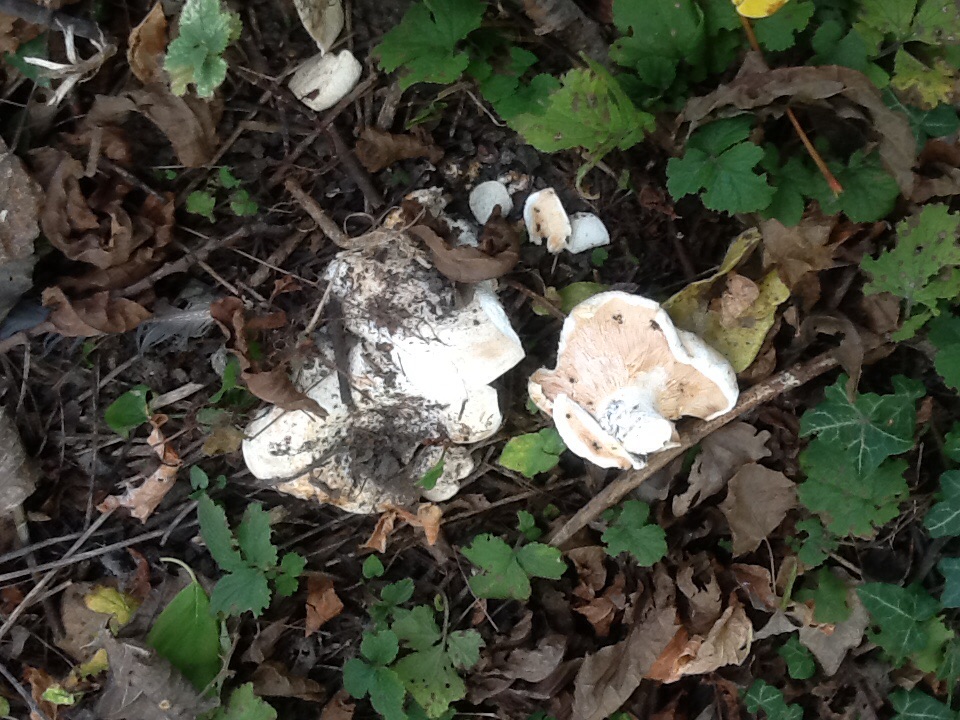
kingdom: Fungi
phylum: Basidiomycota
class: Agaricomycetes
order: Russulales
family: Russulaceae
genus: Lactarius
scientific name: Lactarius controversus
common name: rosabladet mælkehat
